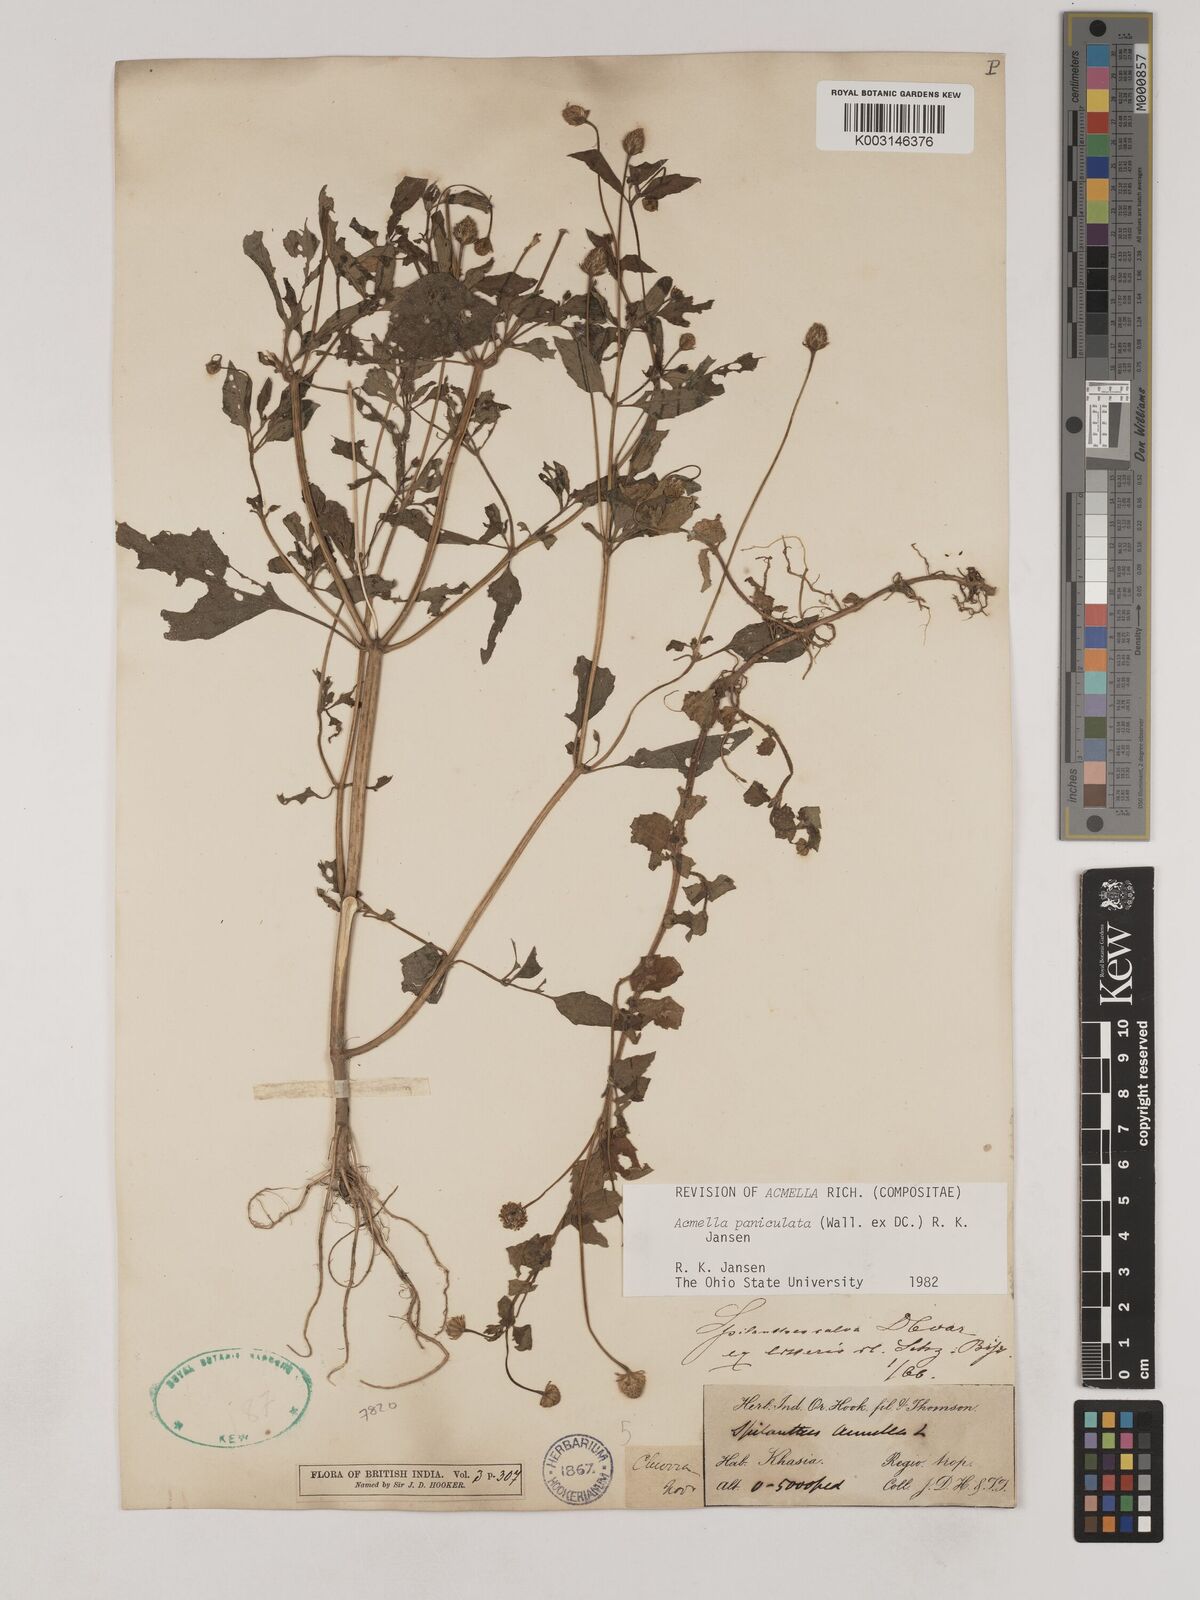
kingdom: Plantae
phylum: Tracheophyta
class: Magnoliopsida
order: Asterales
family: Asteraceae
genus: Acmella
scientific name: Acmella paniculata
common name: Panicled spot flower
